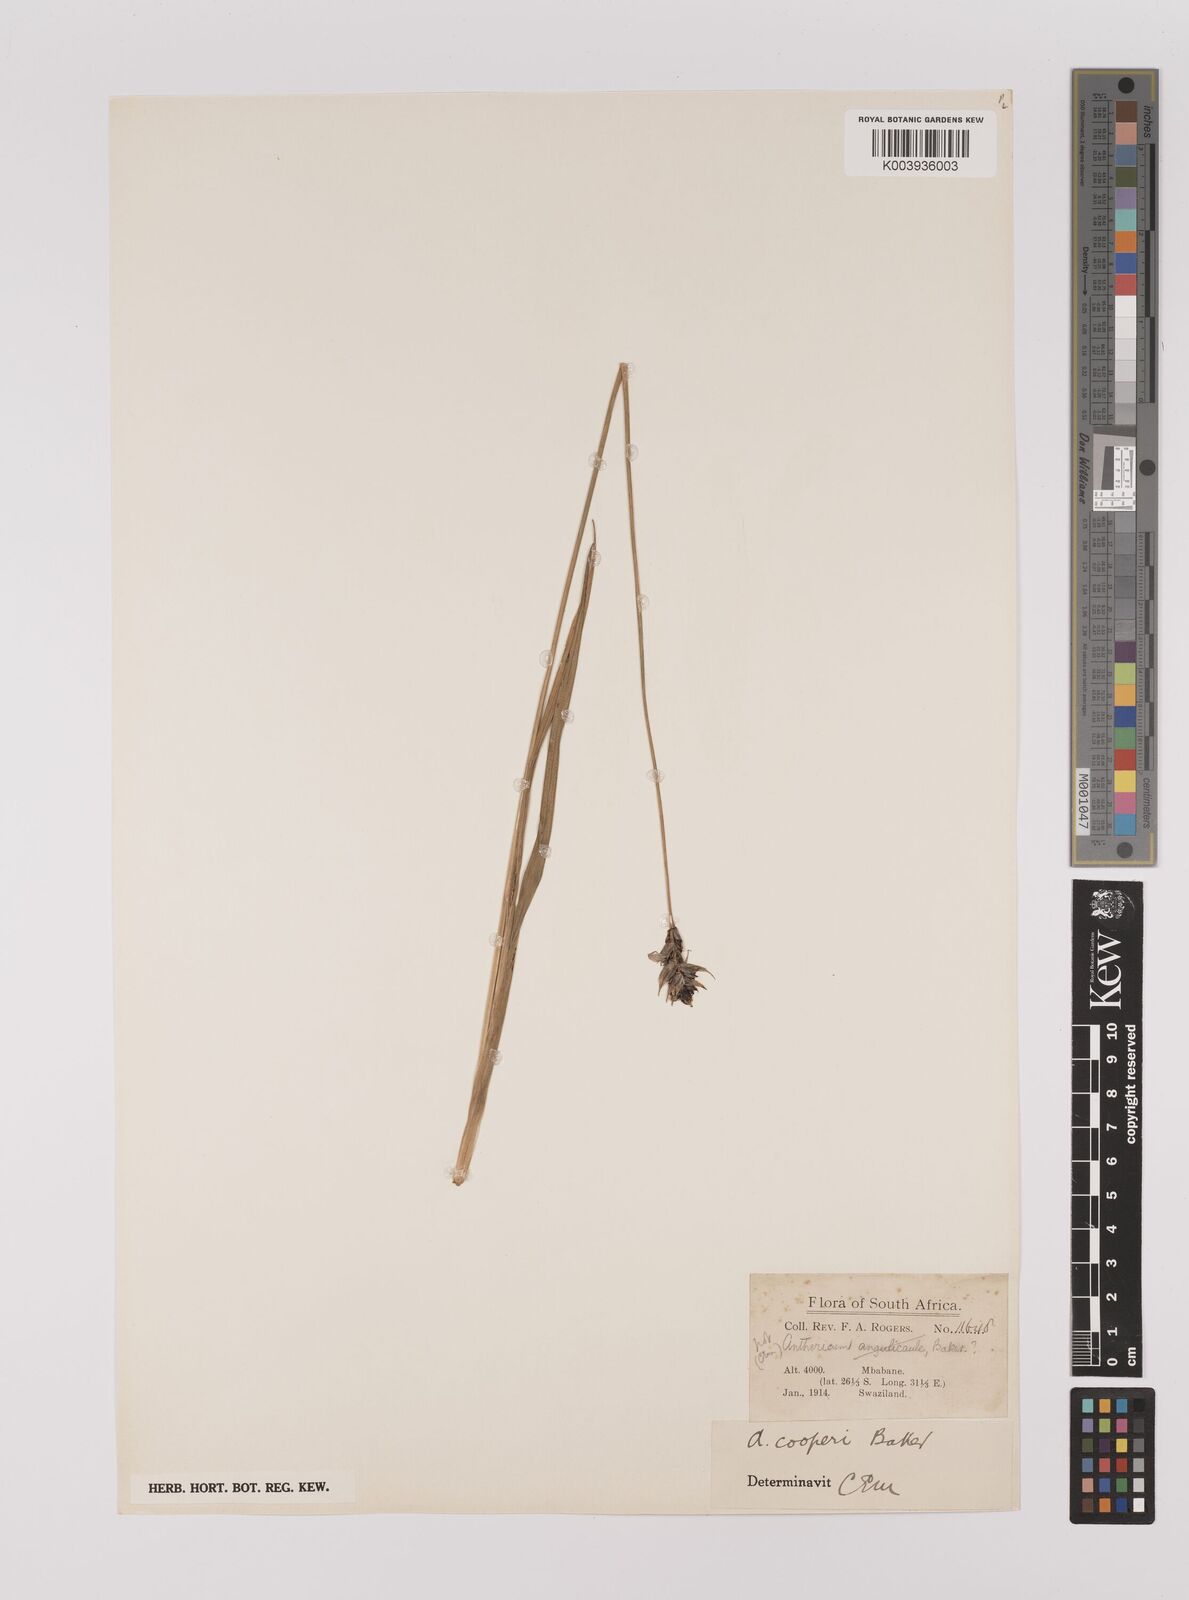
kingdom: Plantae
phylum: Tracheophyta
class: Liliopsida
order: Asparagales
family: Asparagaceae
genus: Chlorophytum
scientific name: Chlorophytum cooperi
